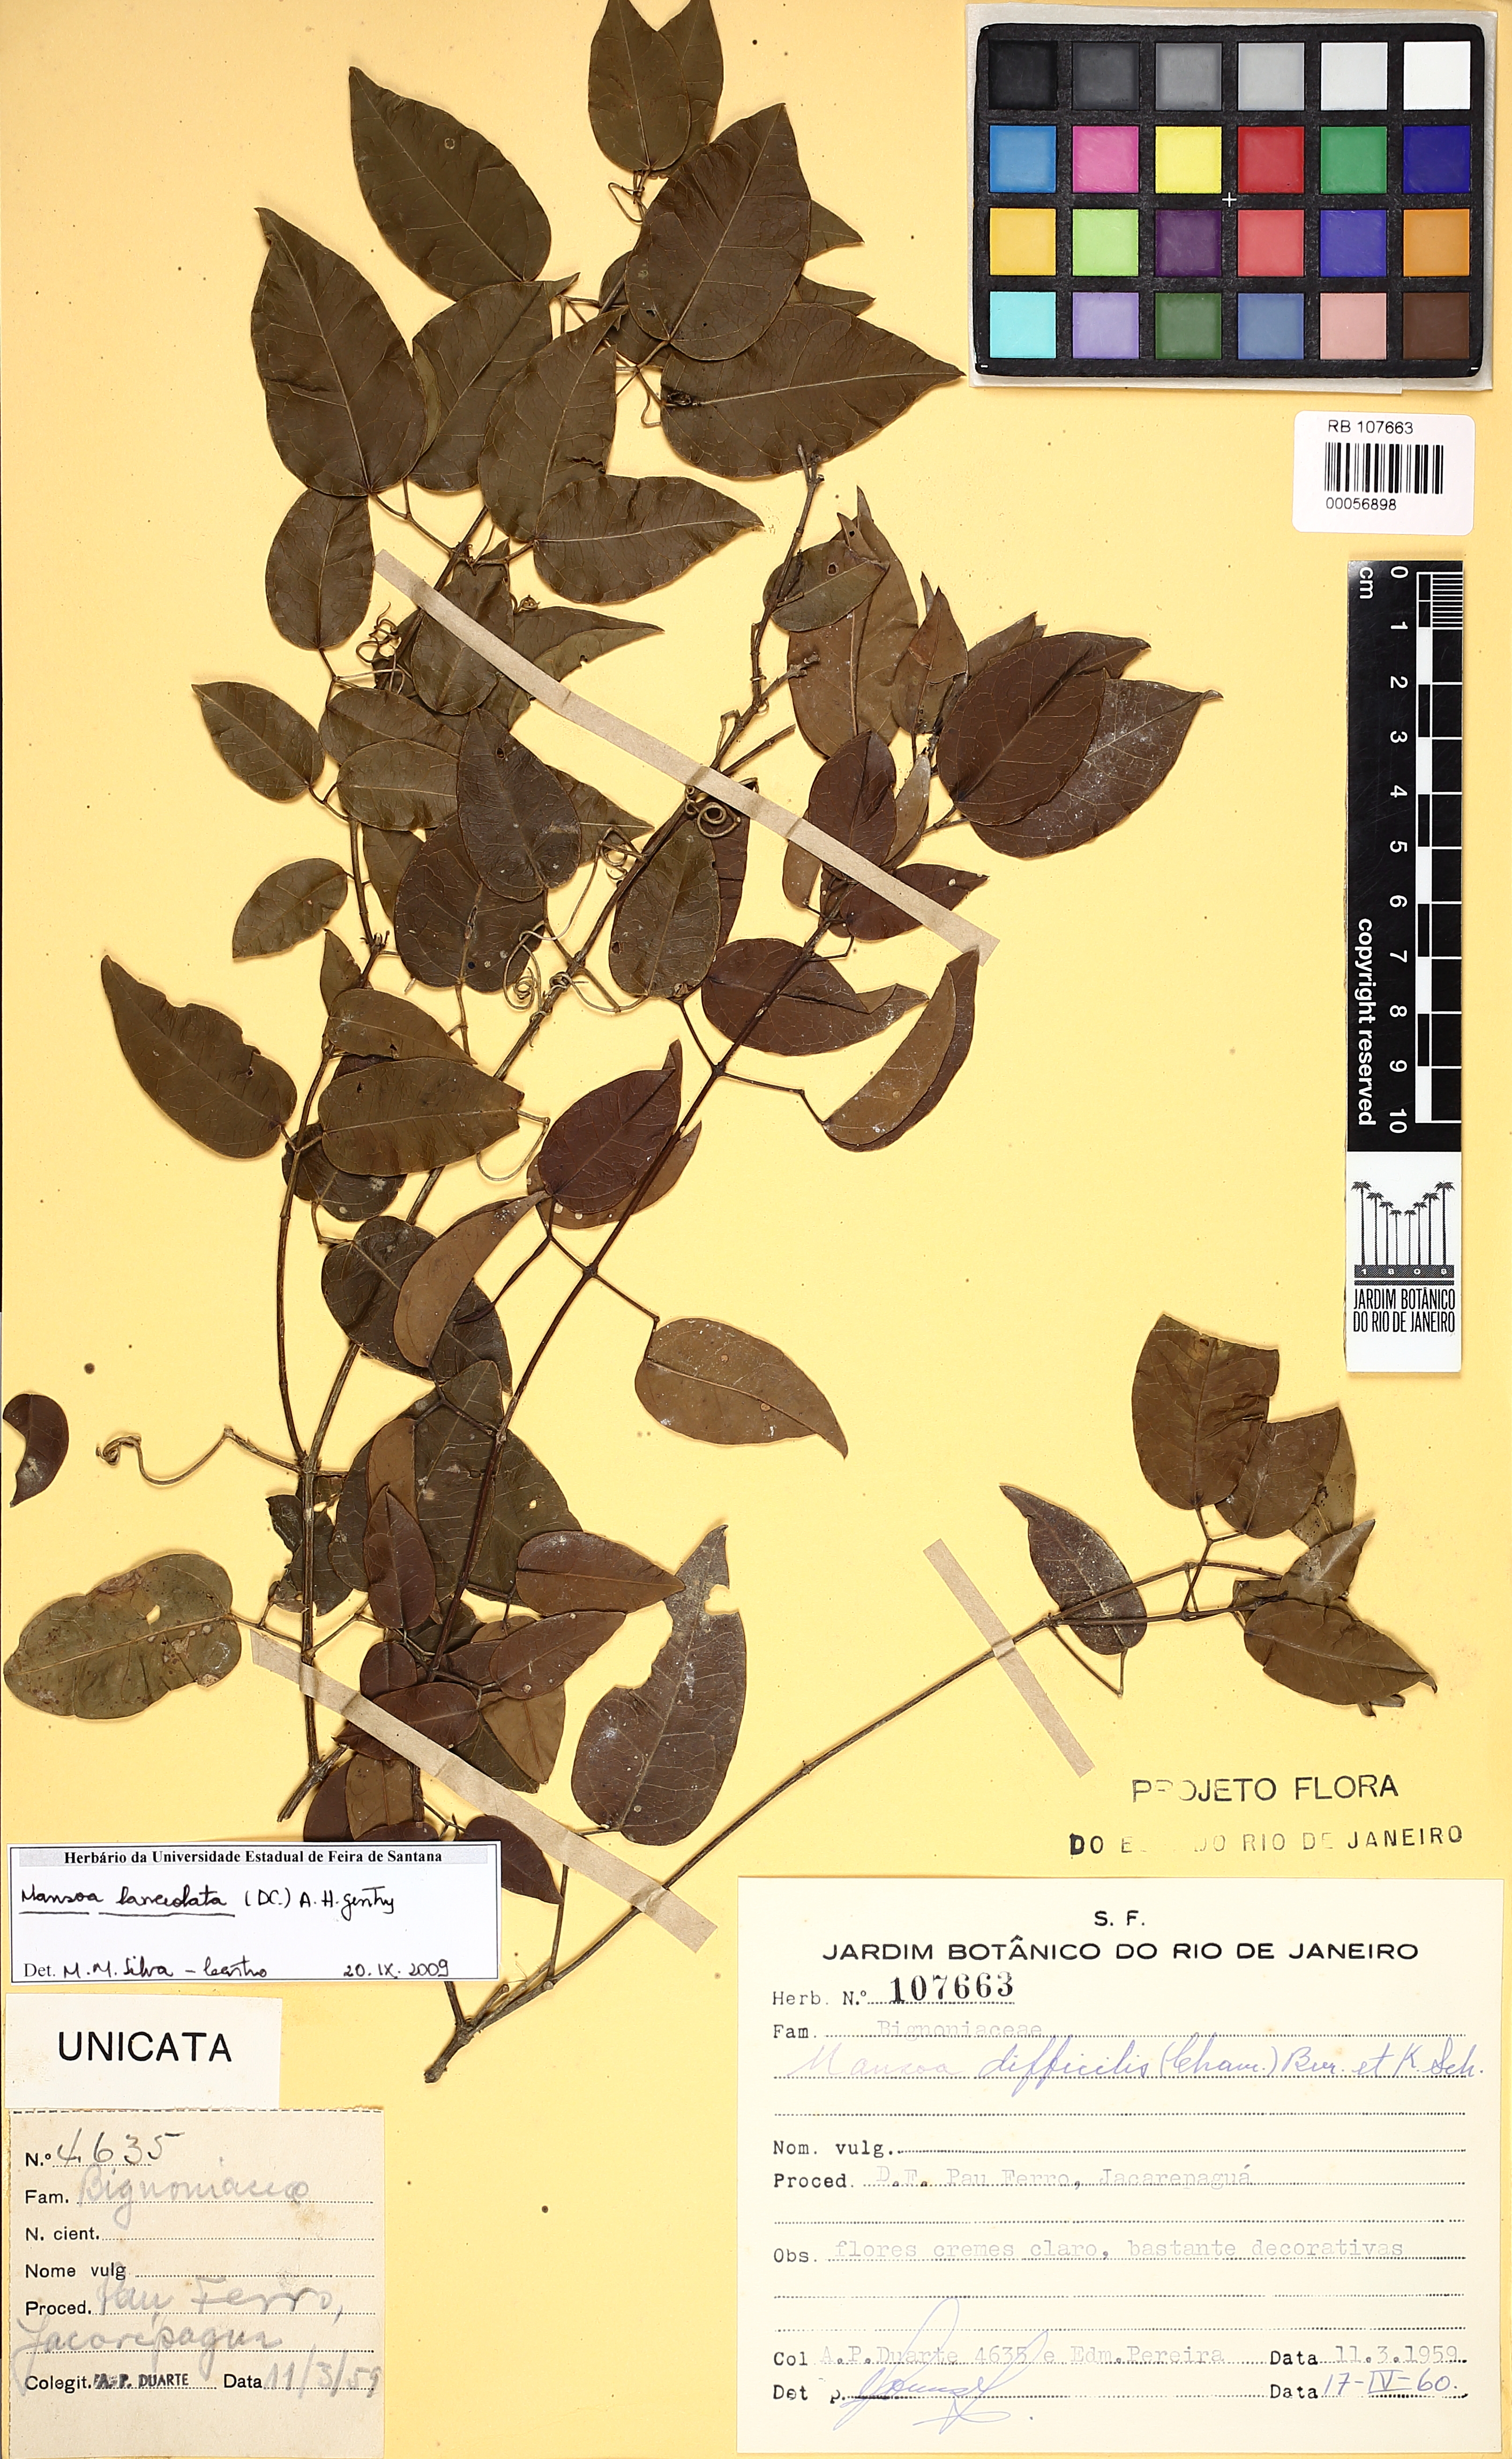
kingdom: Plantae
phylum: Tracheophyta
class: Magnoliopsida
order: Lamiales
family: Bignoniaceae
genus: Mansoa
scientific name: Mansoa lanceolata
